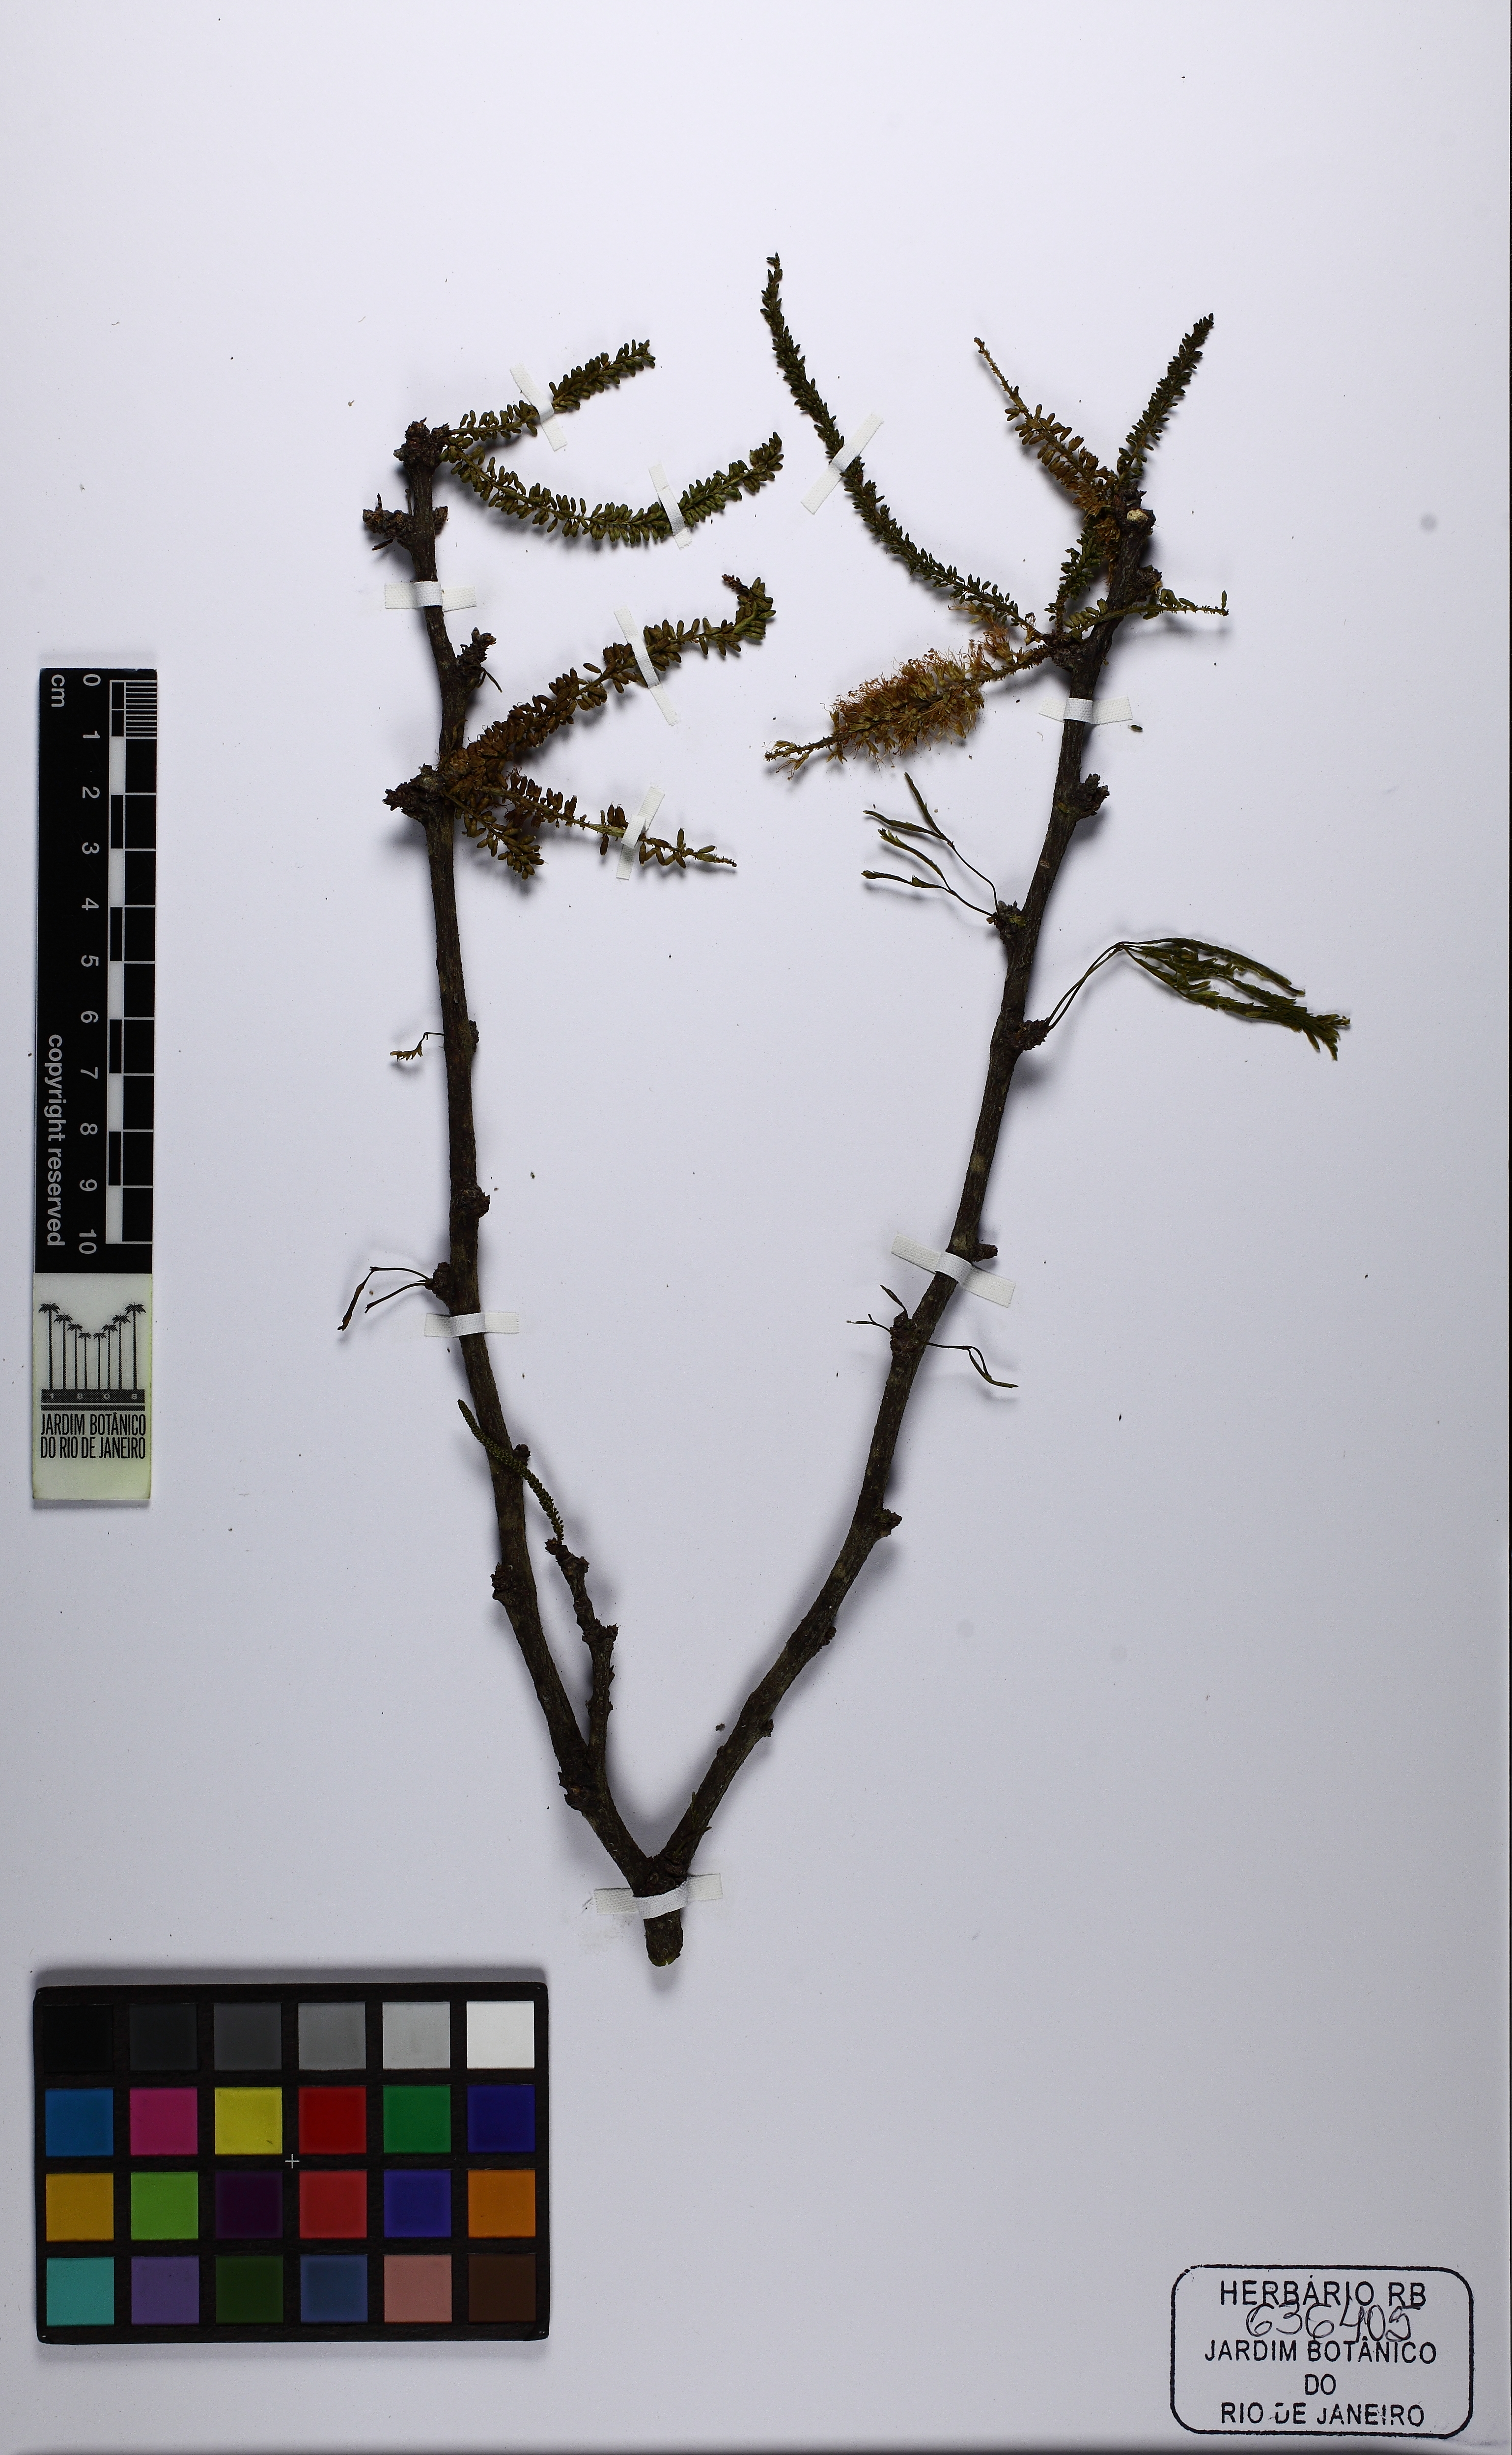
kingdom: Plantae
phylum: Tracheophyta
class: Magnoliopsida
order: Fabales
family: Fabaceae
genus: Prosopis
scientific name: Prosopis
